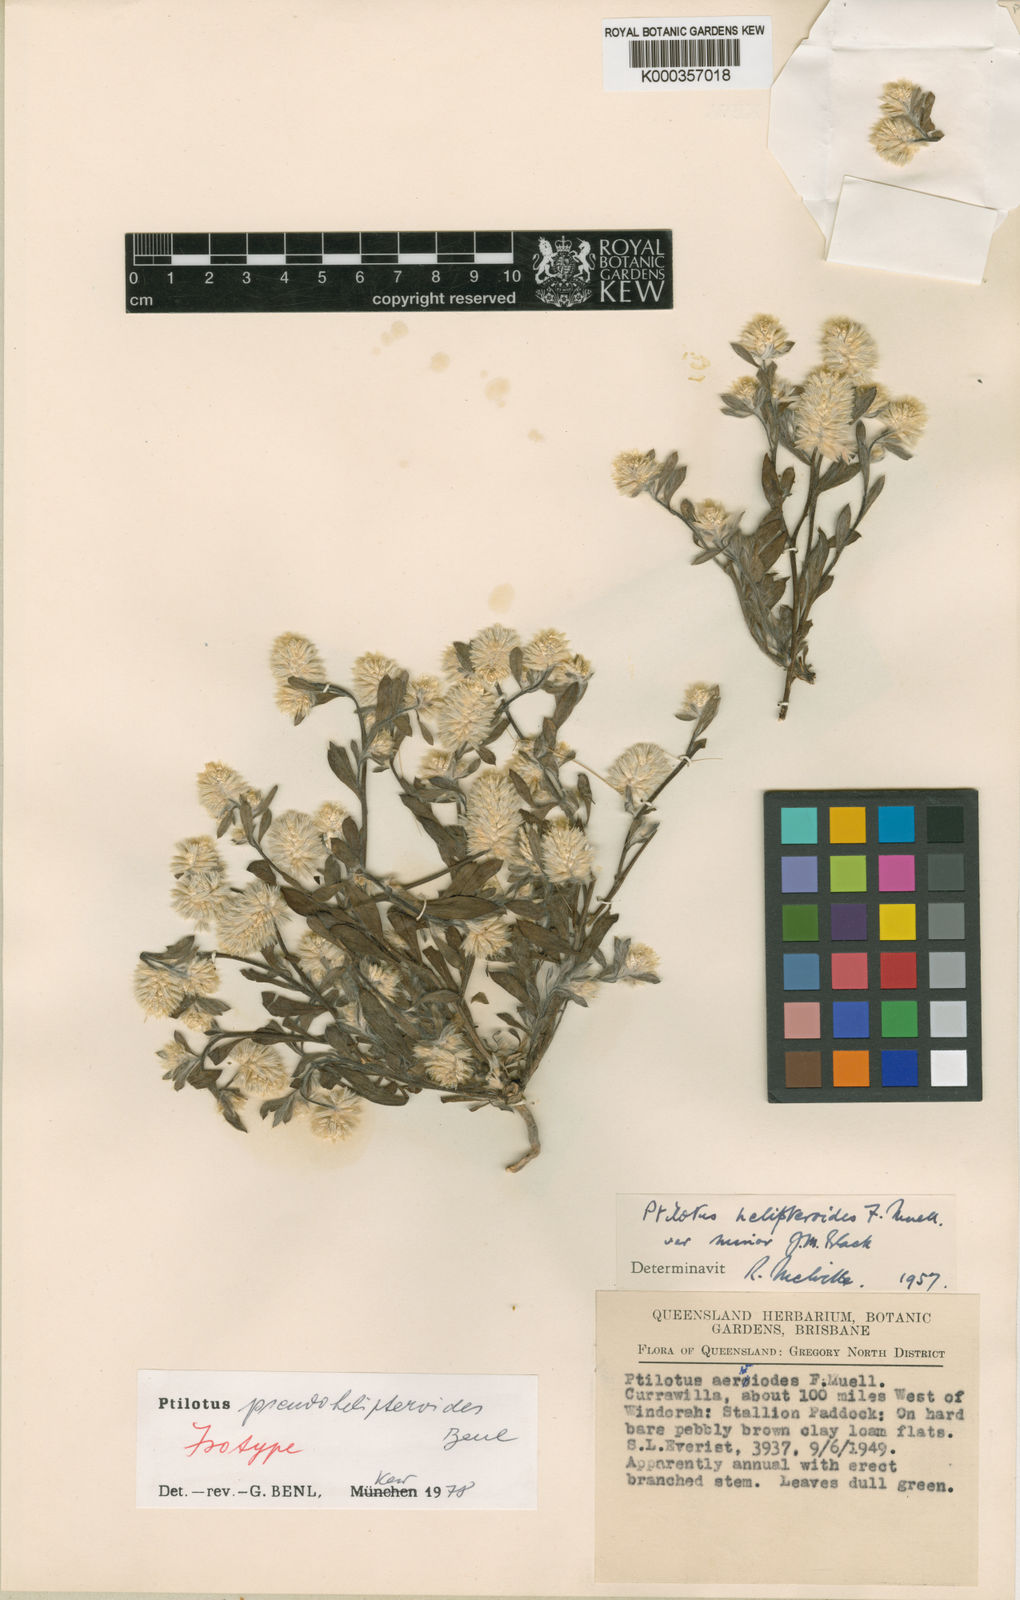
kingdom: Plantae
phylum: Tracheophyta
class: Magnoliopsida
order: Caryophyllales
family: Amaranthaceae
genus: Ptilotus
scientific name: Ptilotus pseudohelipteroides
